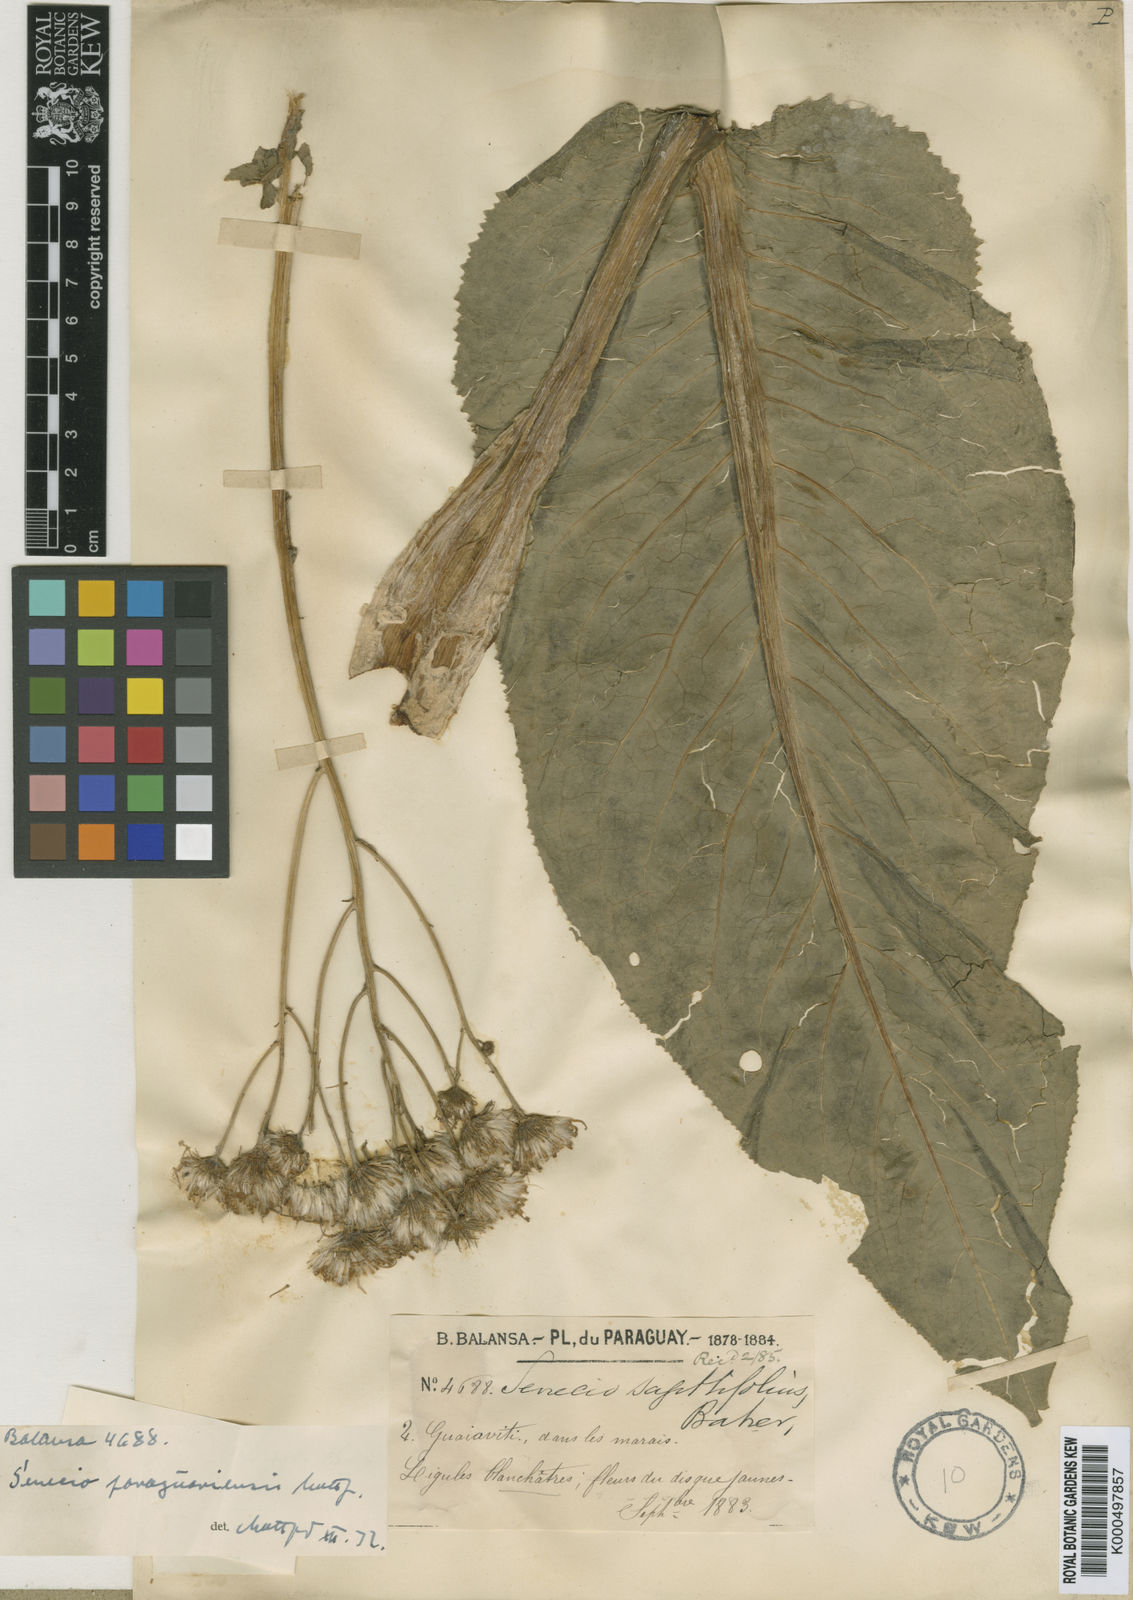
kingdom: Plantae
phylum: Tracheophyta
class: Magnoliopsida
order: Asterales
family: Asteraceae
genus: Senecio
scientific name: Senecio paraguariensis
